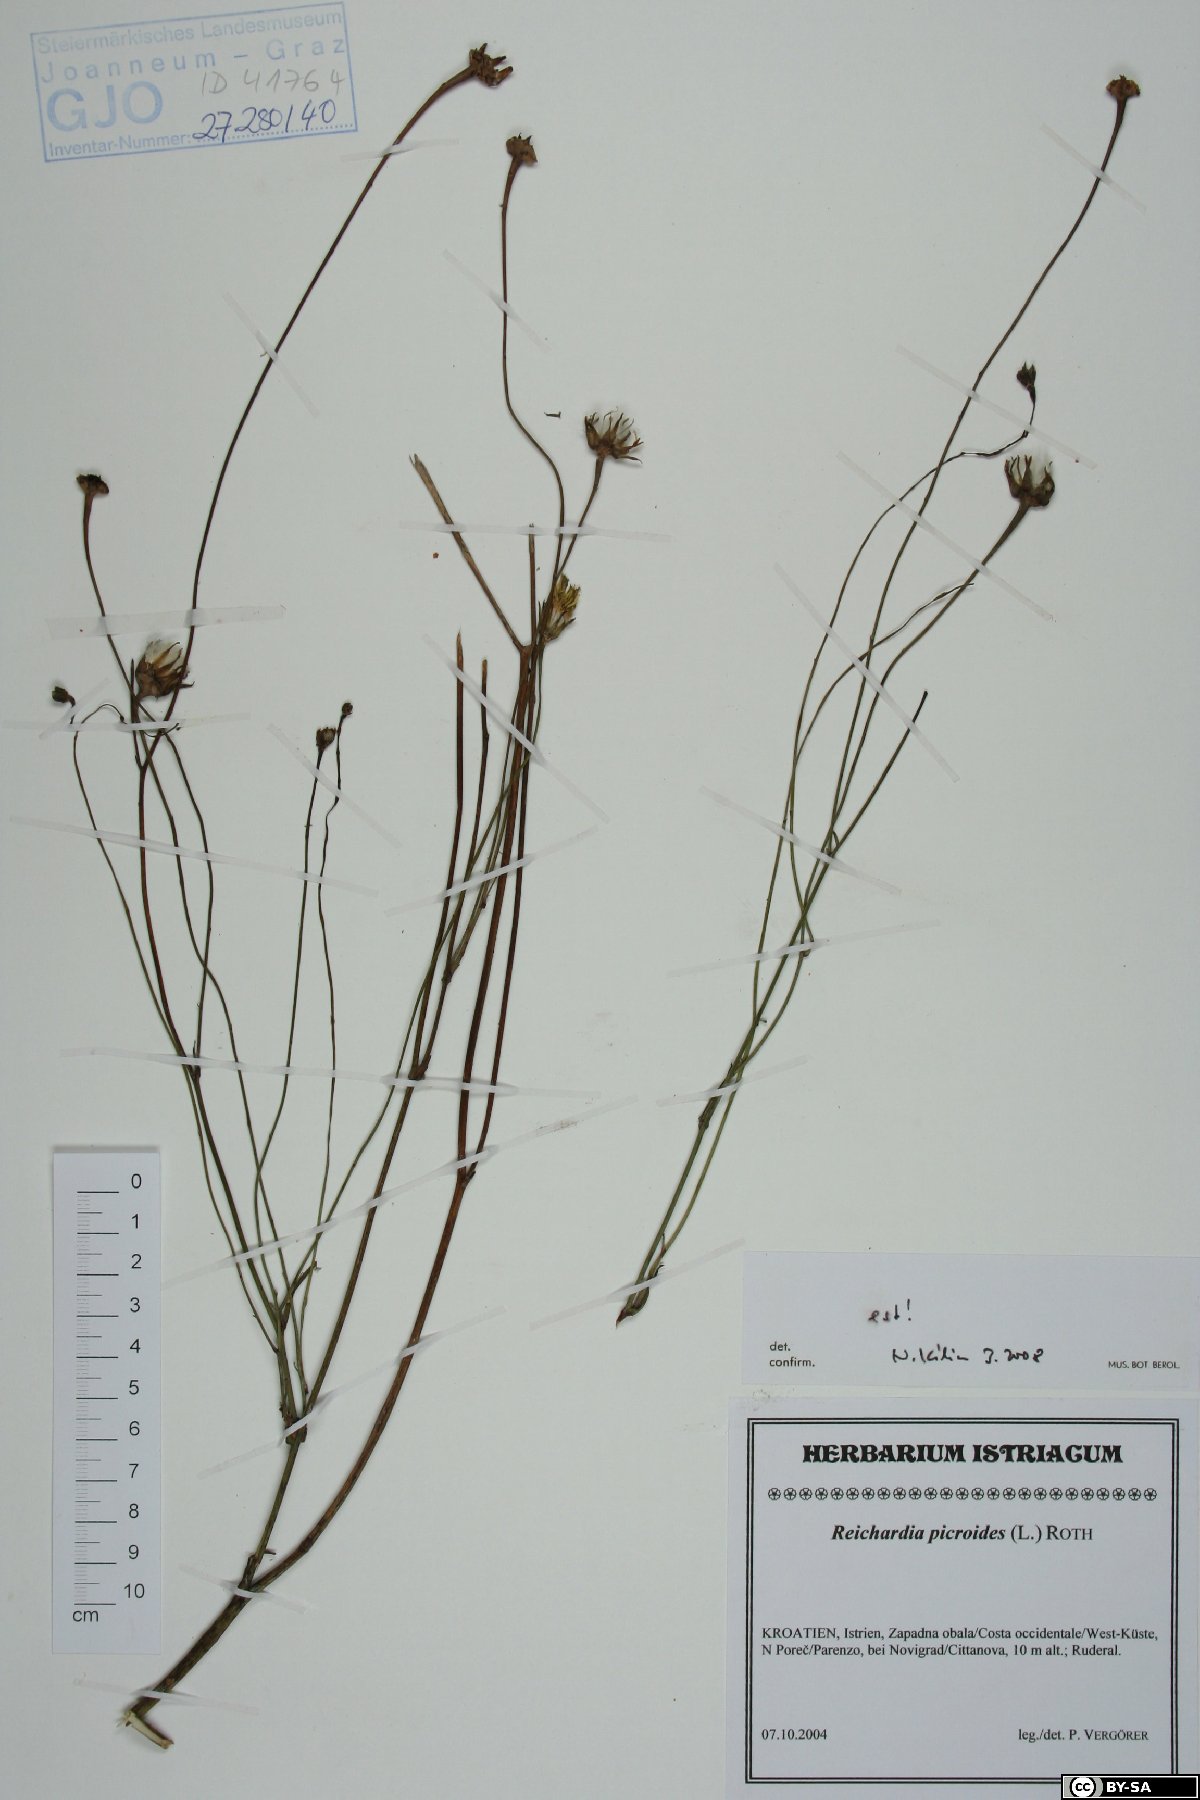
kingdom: Plantae
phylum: Tracheophyta
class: Magnoliopsida
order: Asterales
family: Asteraceae
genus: Reichardia
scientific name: Reichardia picroides
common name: Common brighteyes
